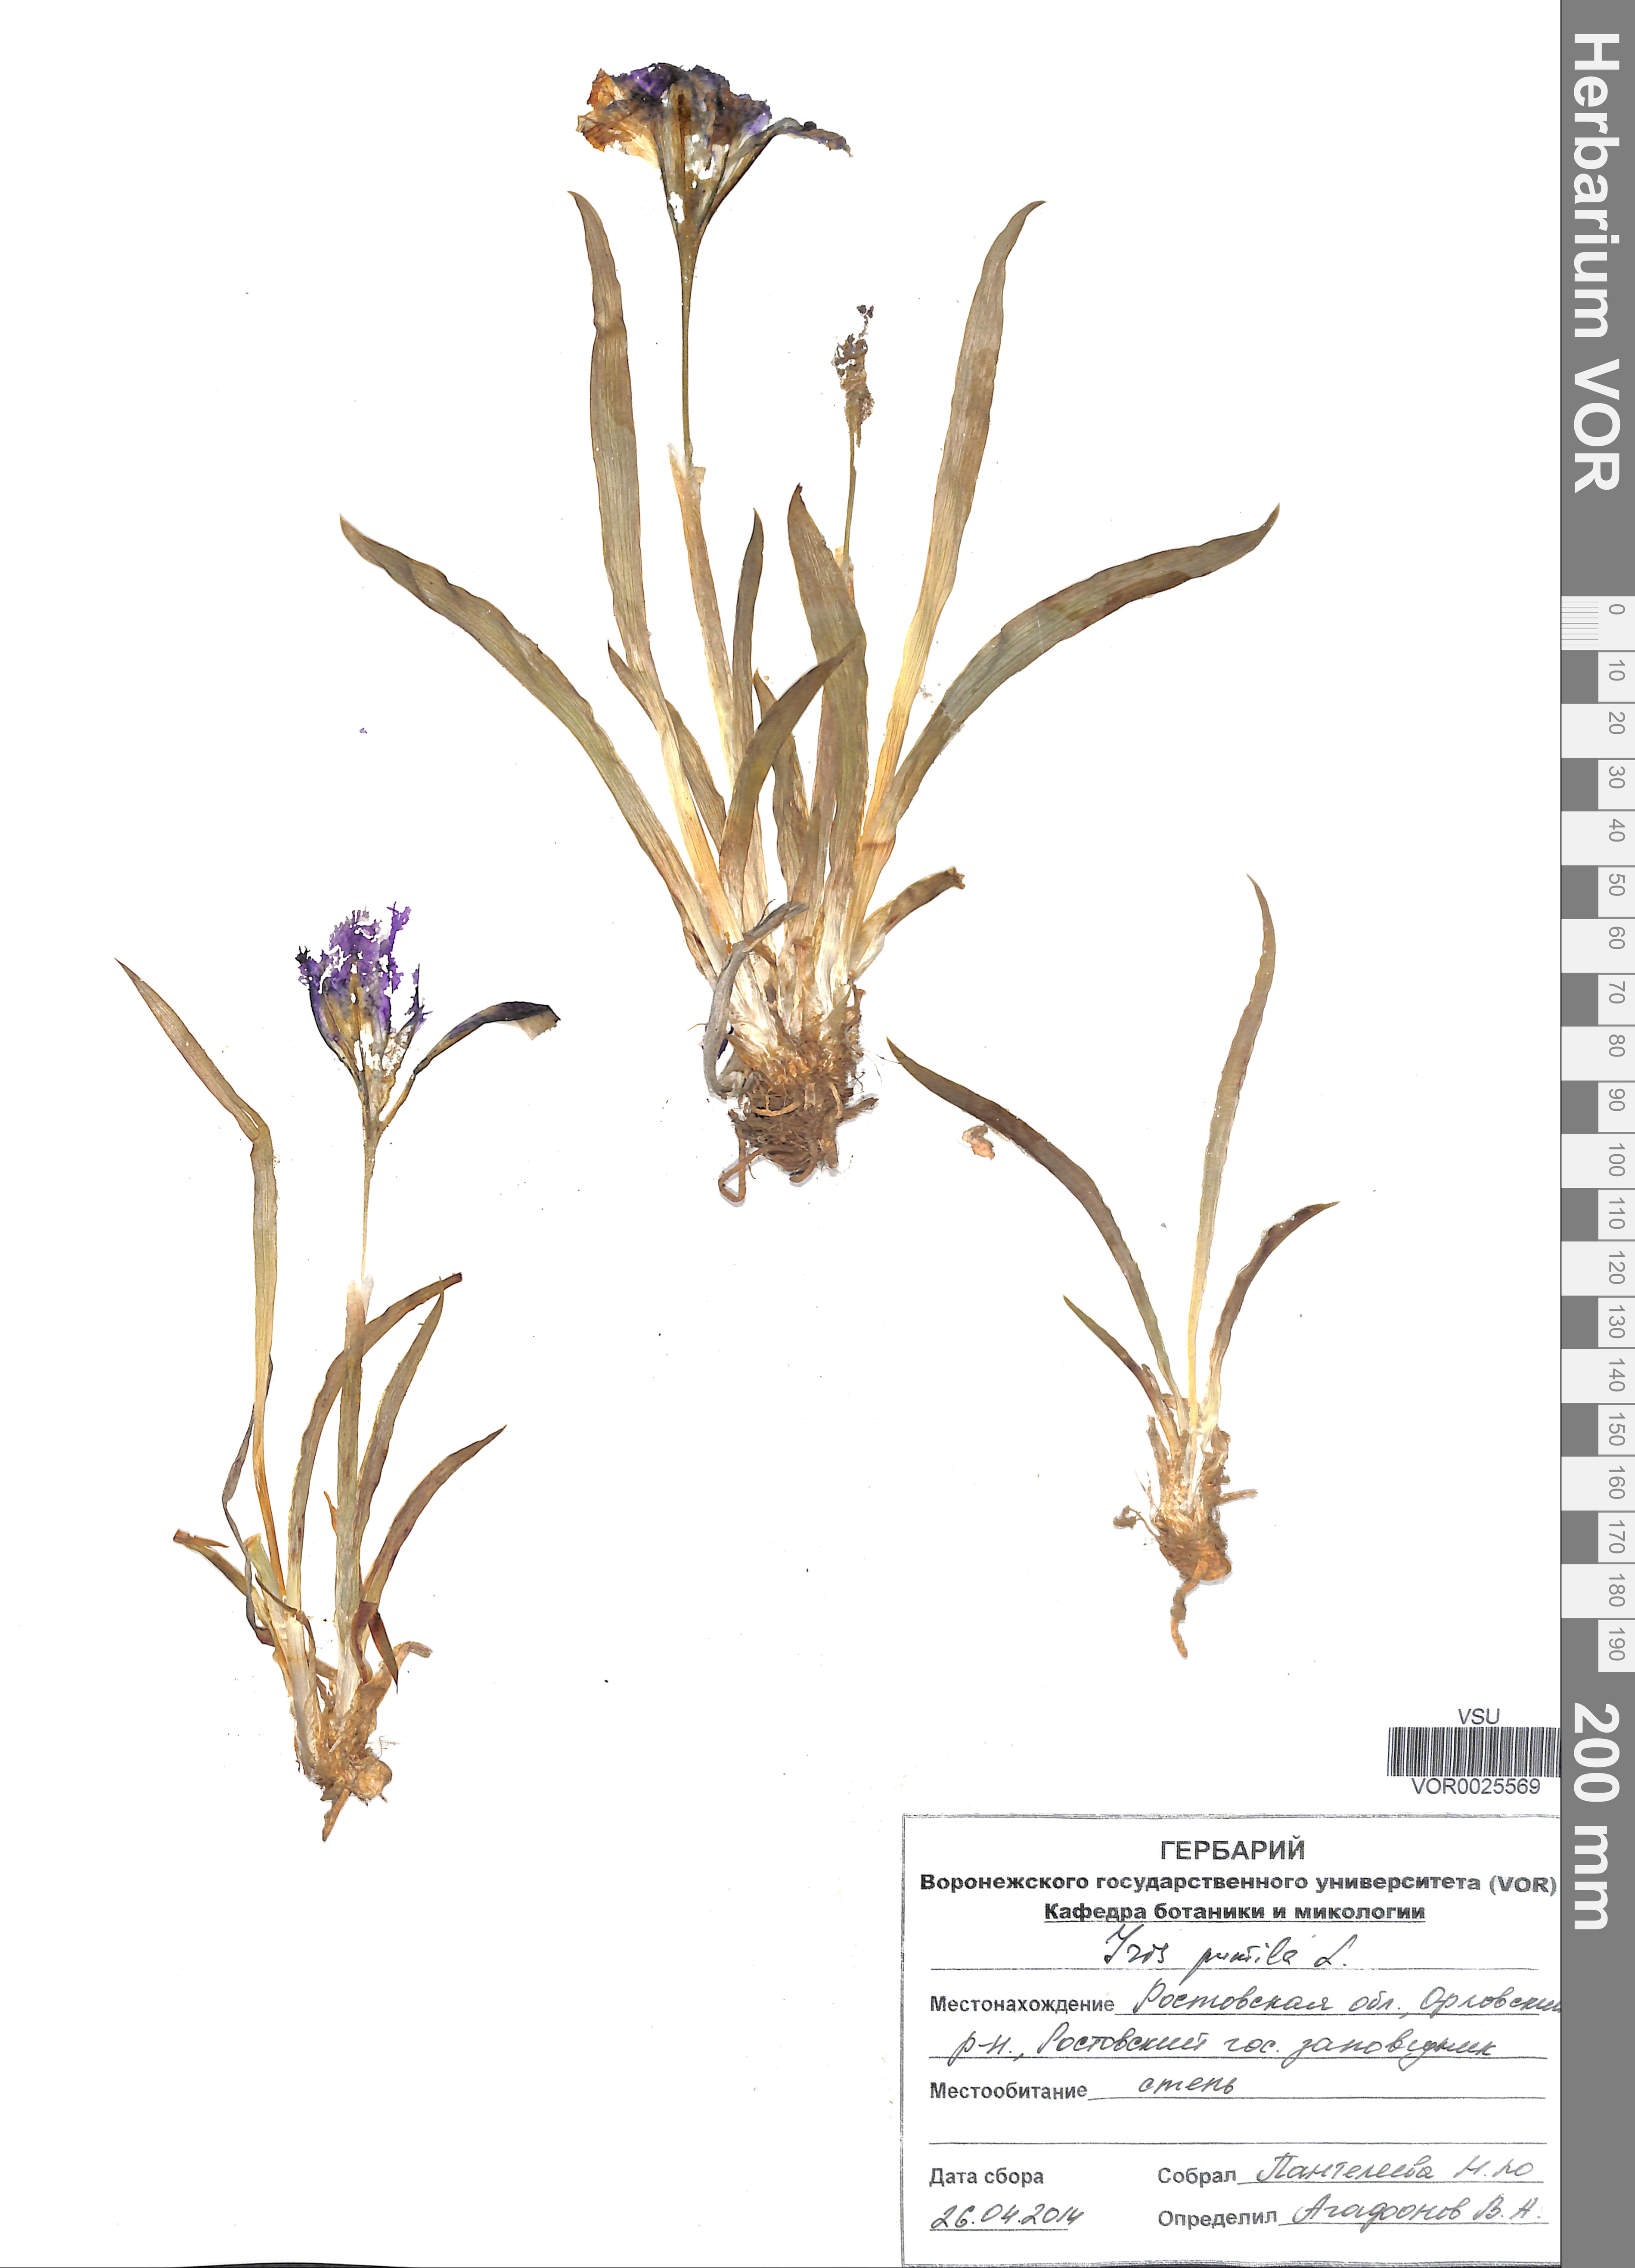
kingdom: Plantae
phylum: Tracheophyta
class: Liliopsida
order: Asparagales
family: Iridaceae
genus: Iris
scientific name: Iris pumila
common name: Dwarf iris
